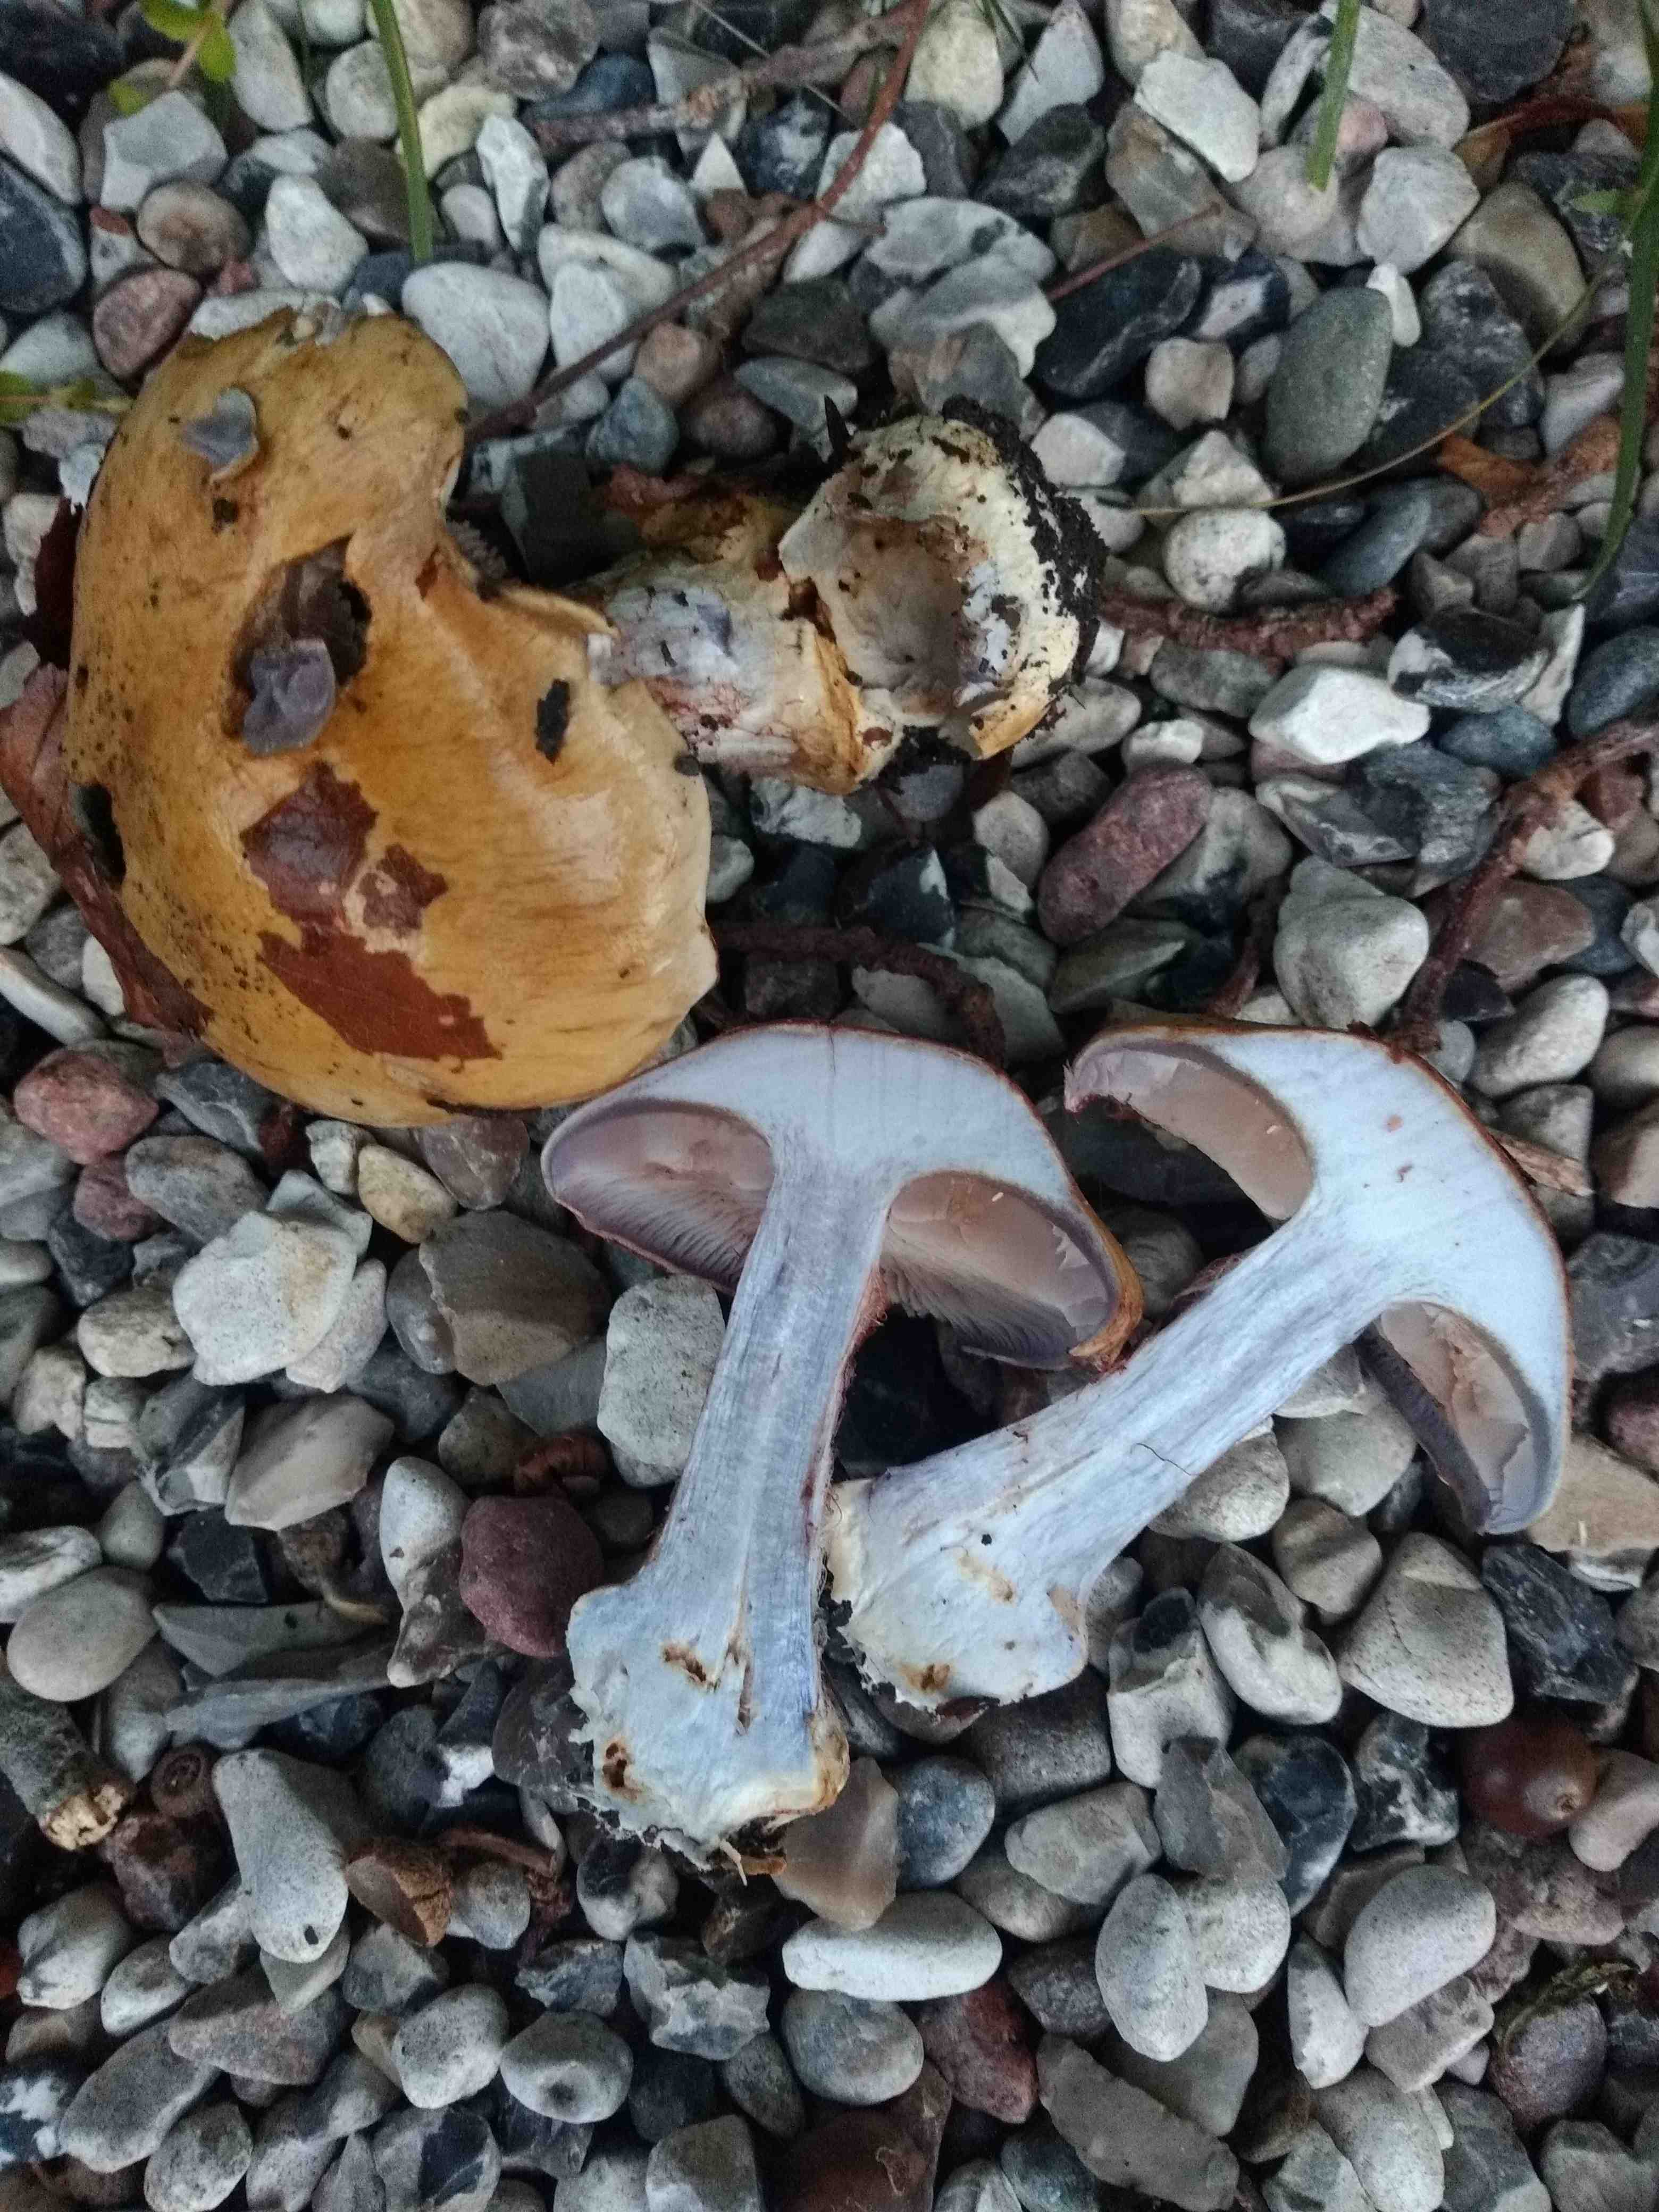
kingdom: Fungi
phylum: Basidiomycota
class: Agaricomycetes
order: Agaricales
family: Cortinariaceae
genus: Cortinarius
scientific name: Cortinarius anserinus
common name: bøge-slørhat
